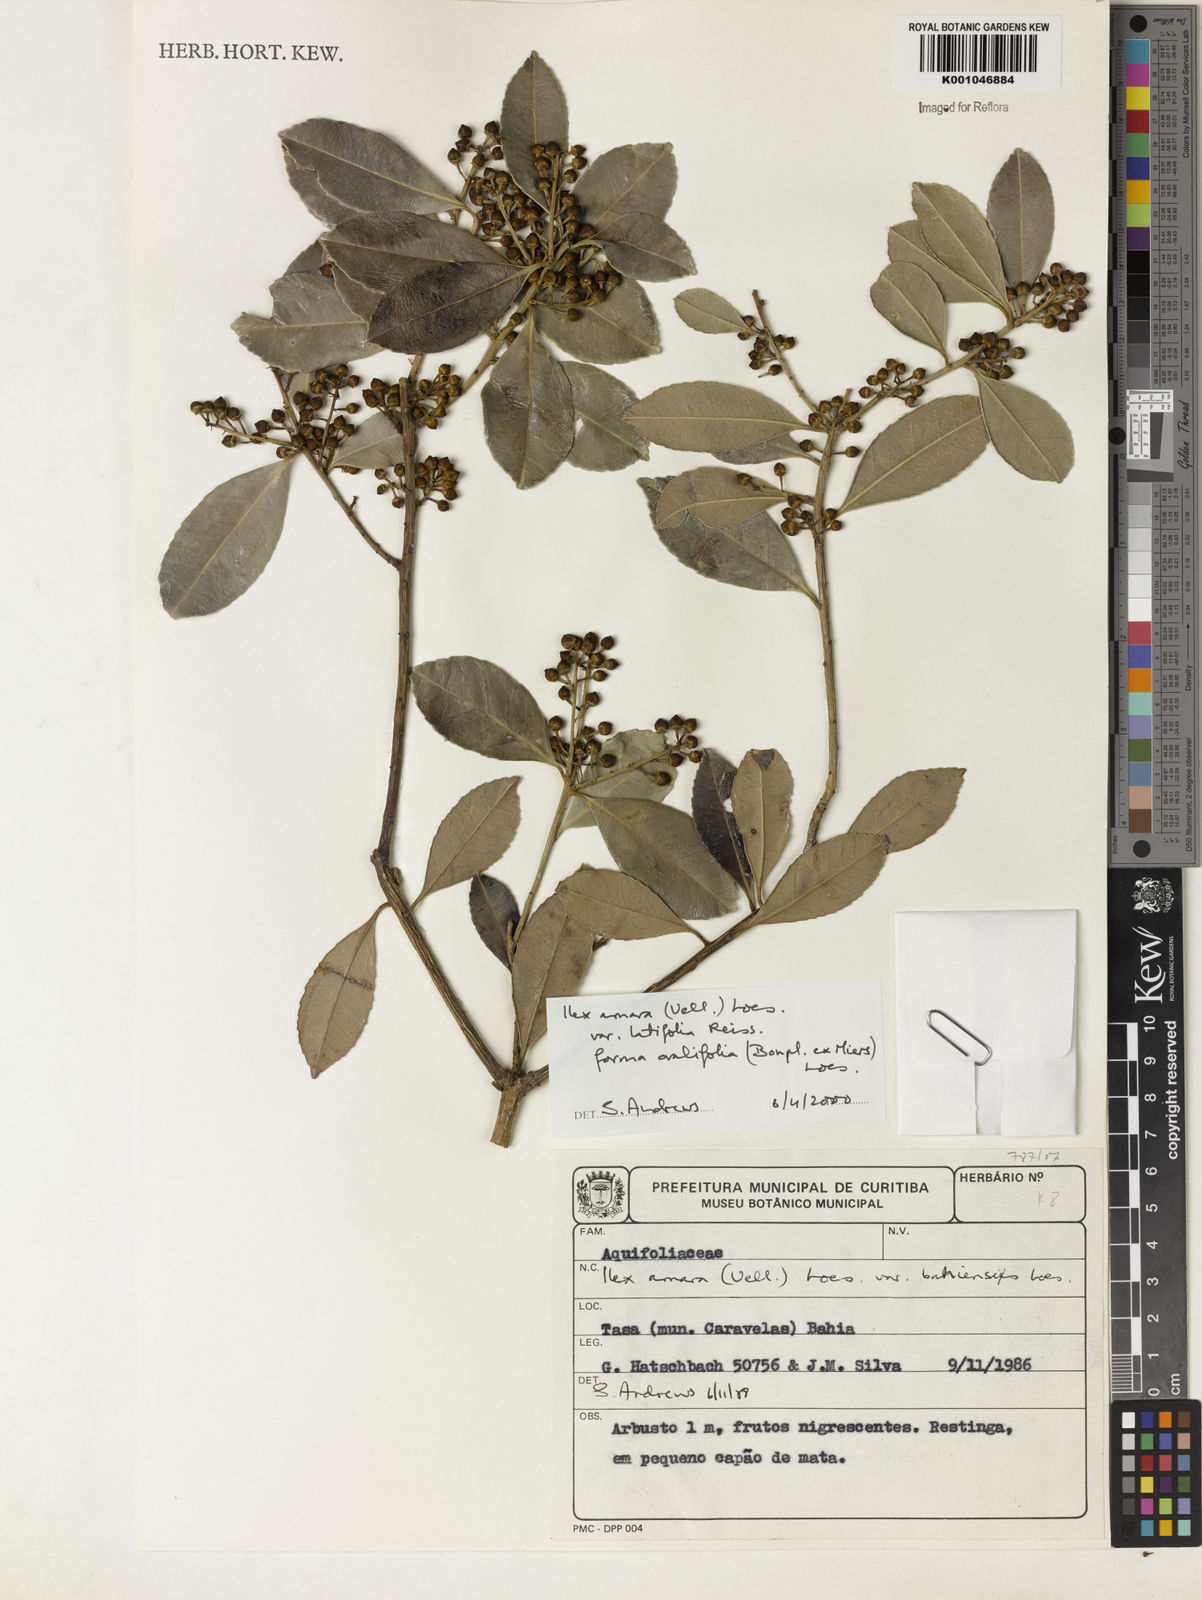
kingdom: Plantae
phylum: Tracheophyta
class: Magnoliopsida
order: Aquifoliales
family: Aquifoliaceae
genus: Ilex
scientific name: Ilex
